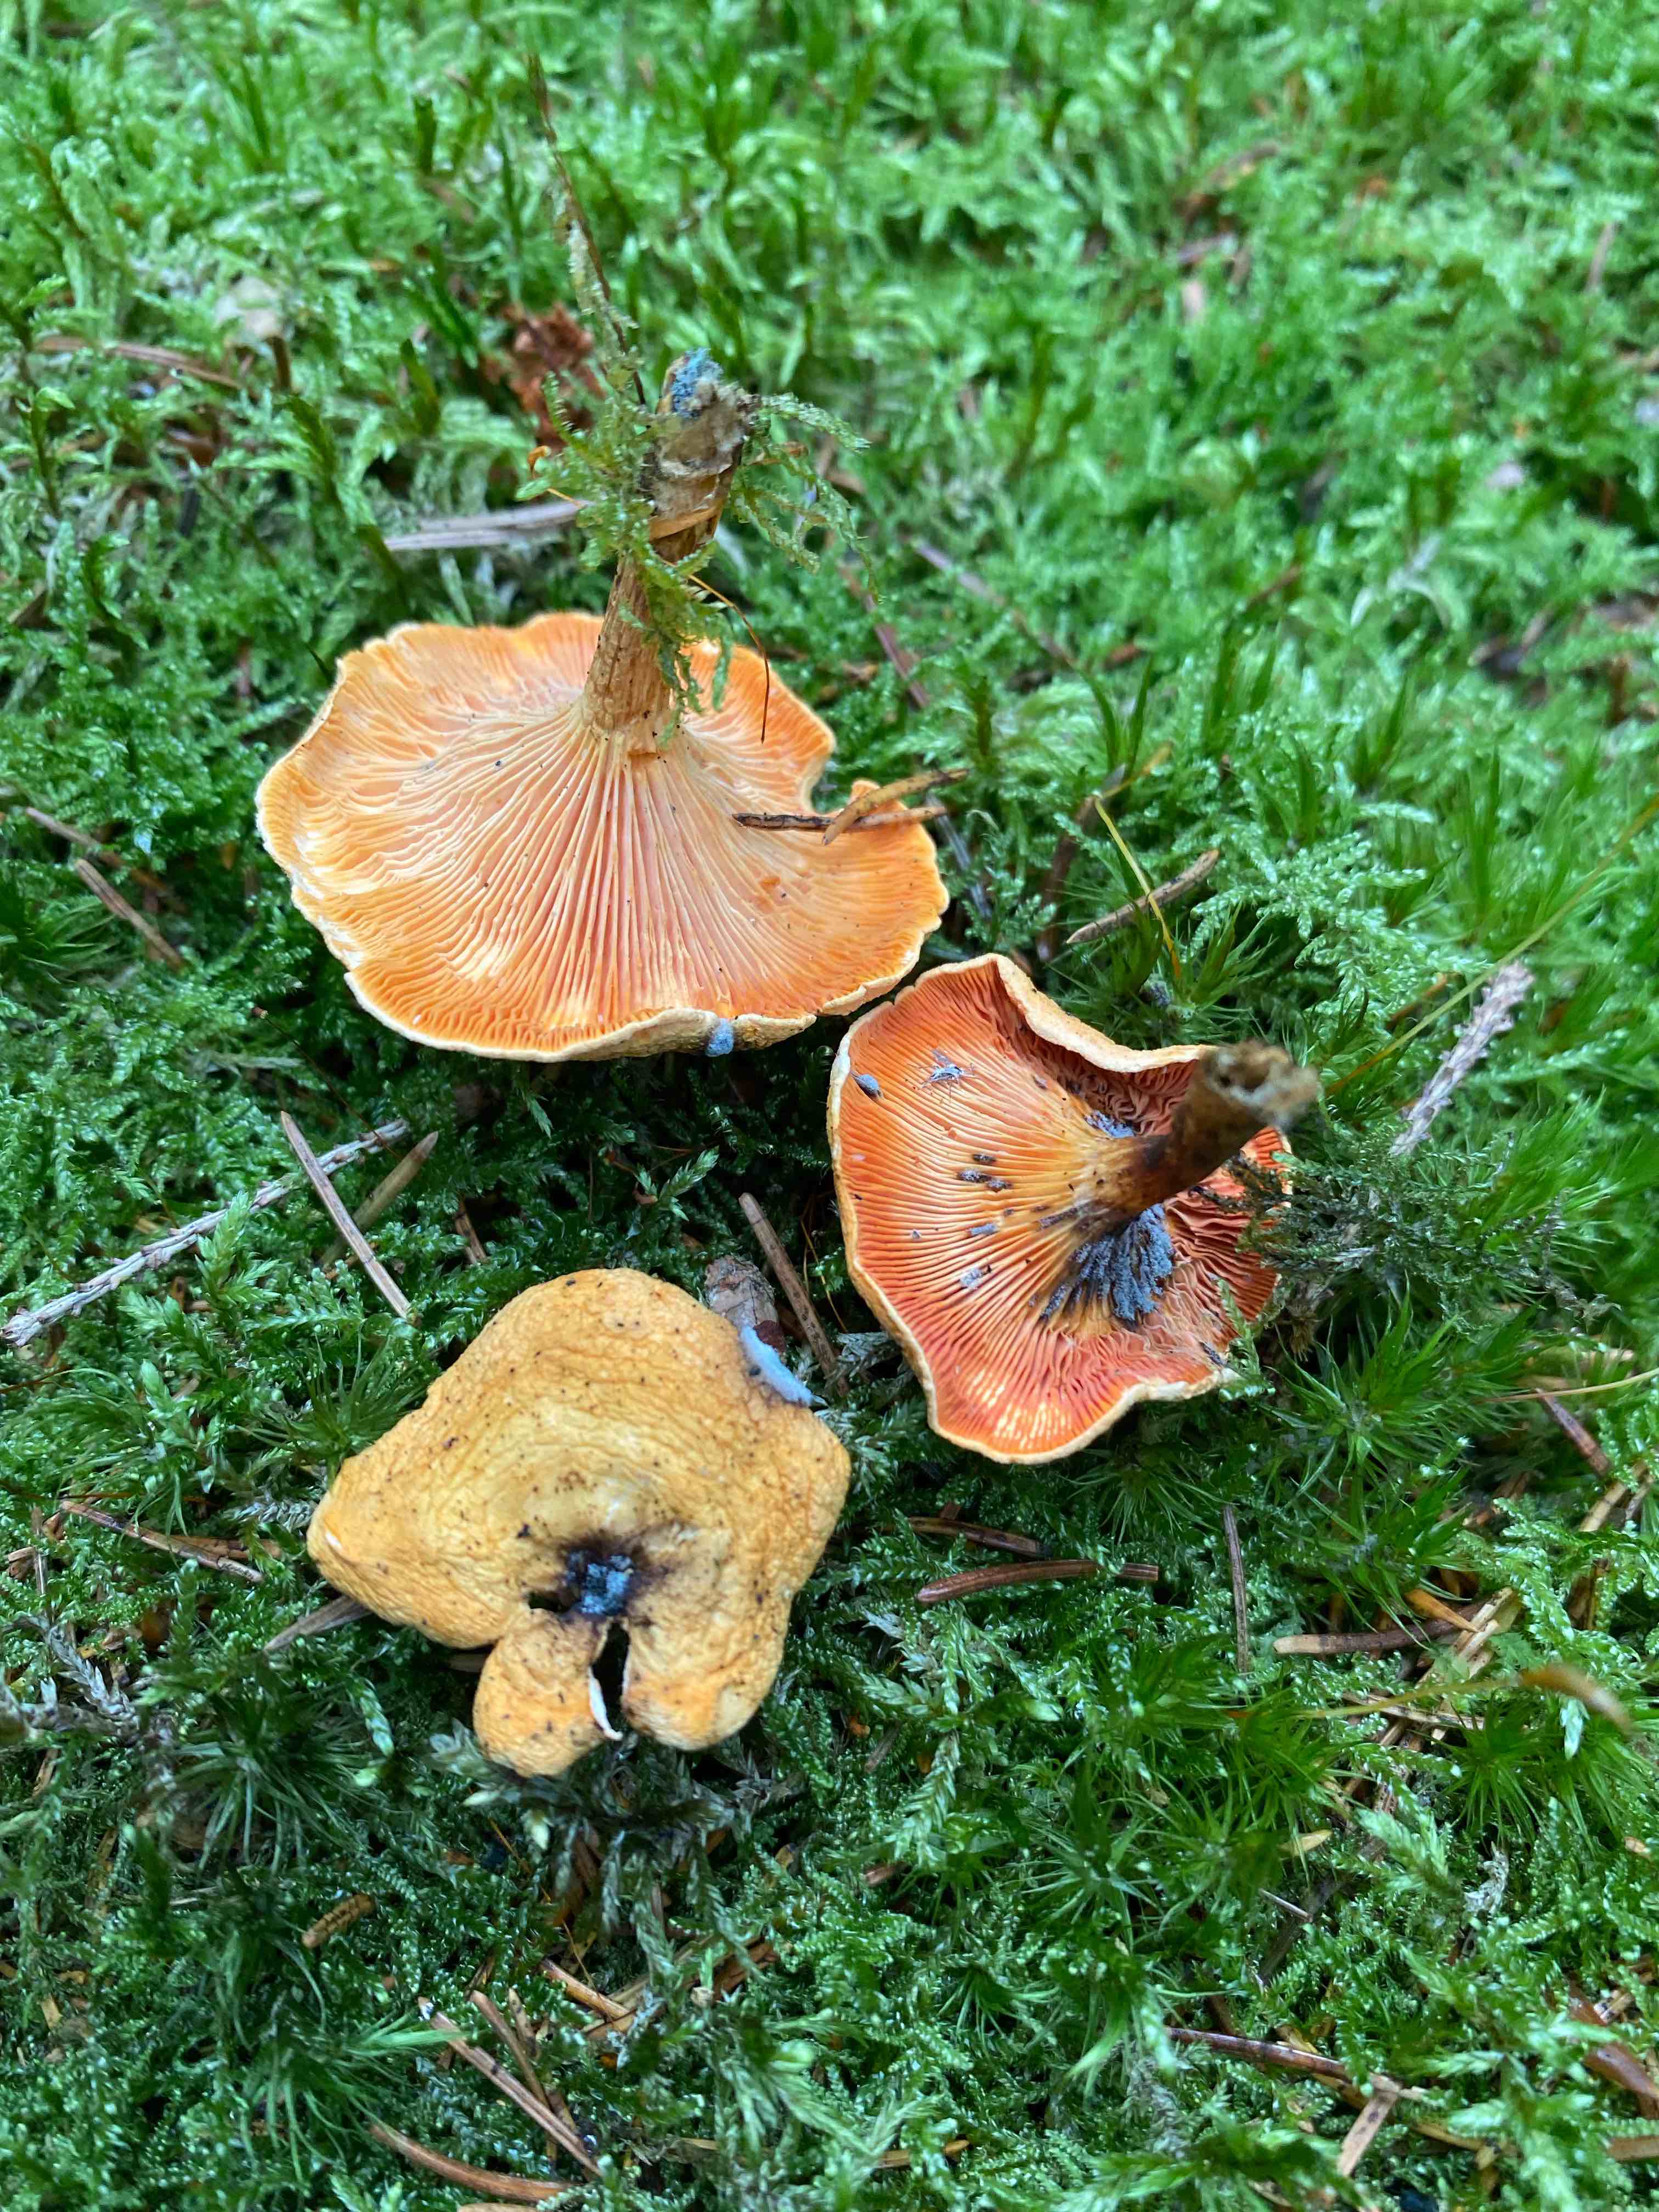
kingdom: Fungi
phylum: Basidiomycota
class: Agaricomycetes
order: Boletales
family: Hygrophoropsidaceae
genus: Hygrophoropsis
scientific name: Hygrophoropsis aurantiaca
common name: almindelig orangekantarel
